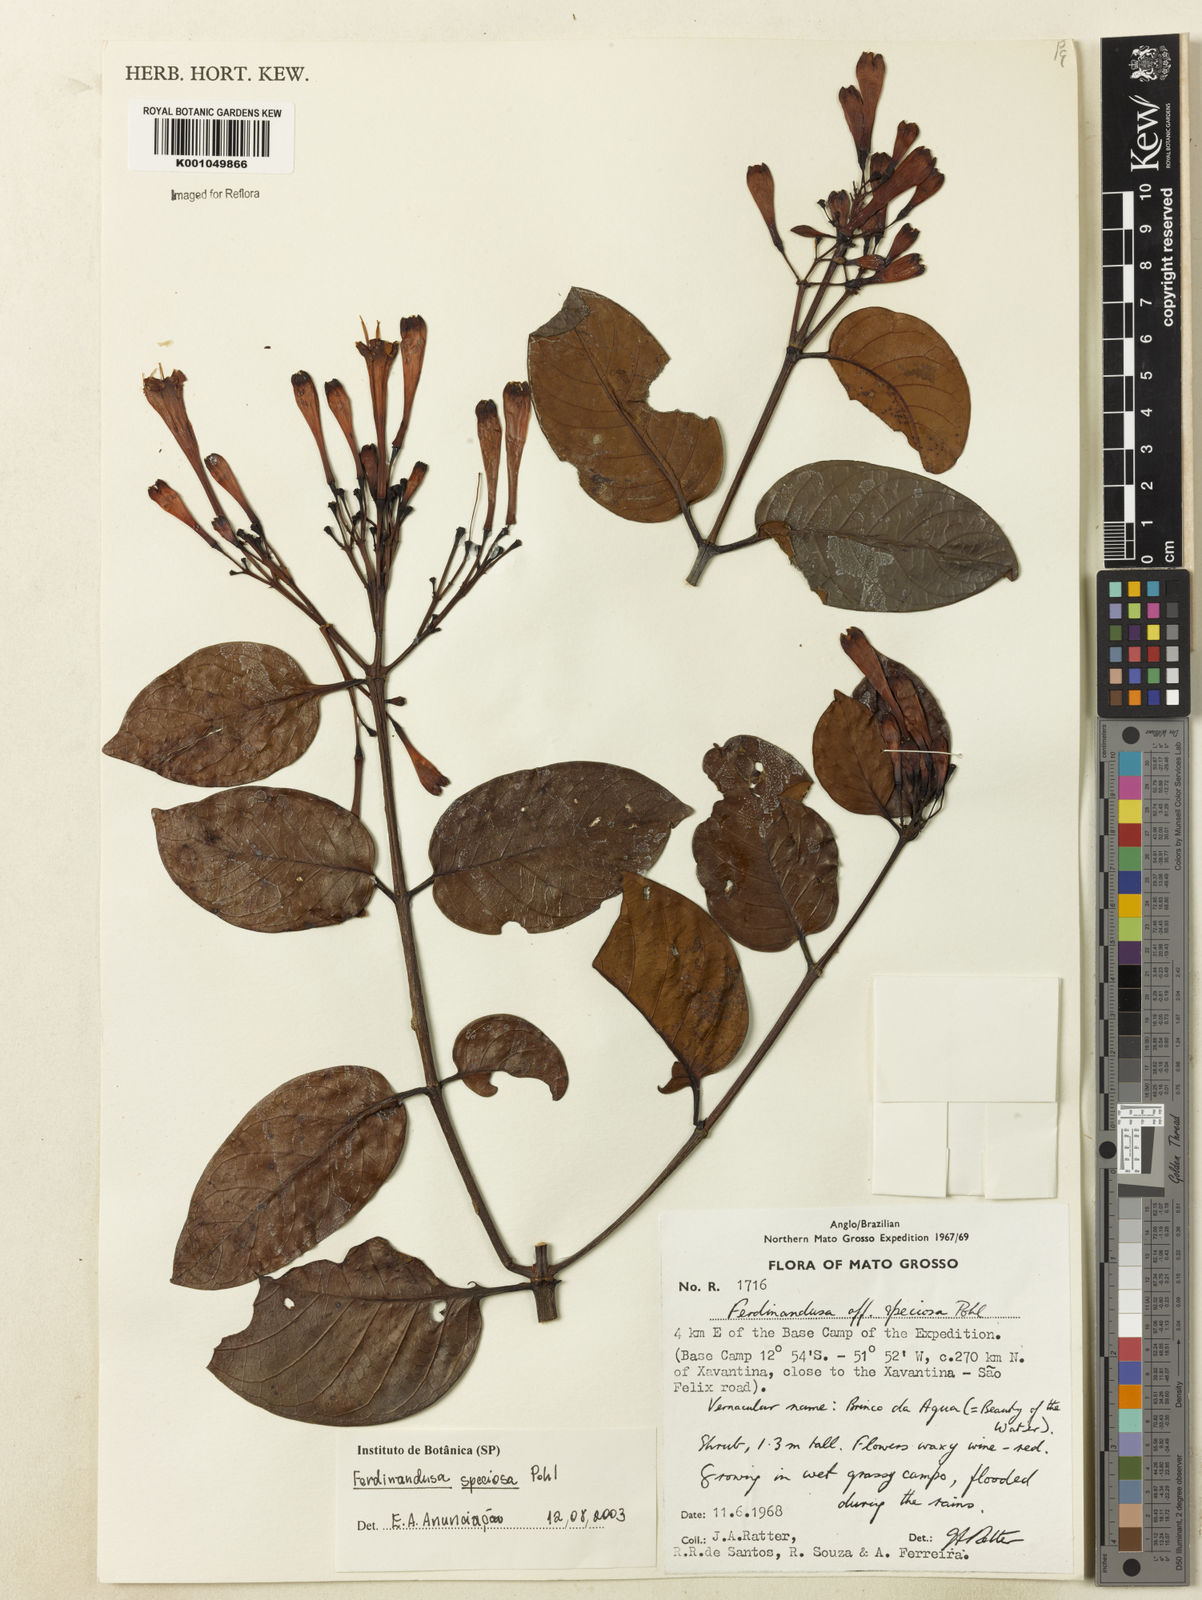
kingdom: Plantae
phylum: Tracheophyta
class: Magnoliopsida
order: Gentianales
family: Rubiaceae
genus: Ferdinandusa
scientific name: Ferdinandusa speciosa
